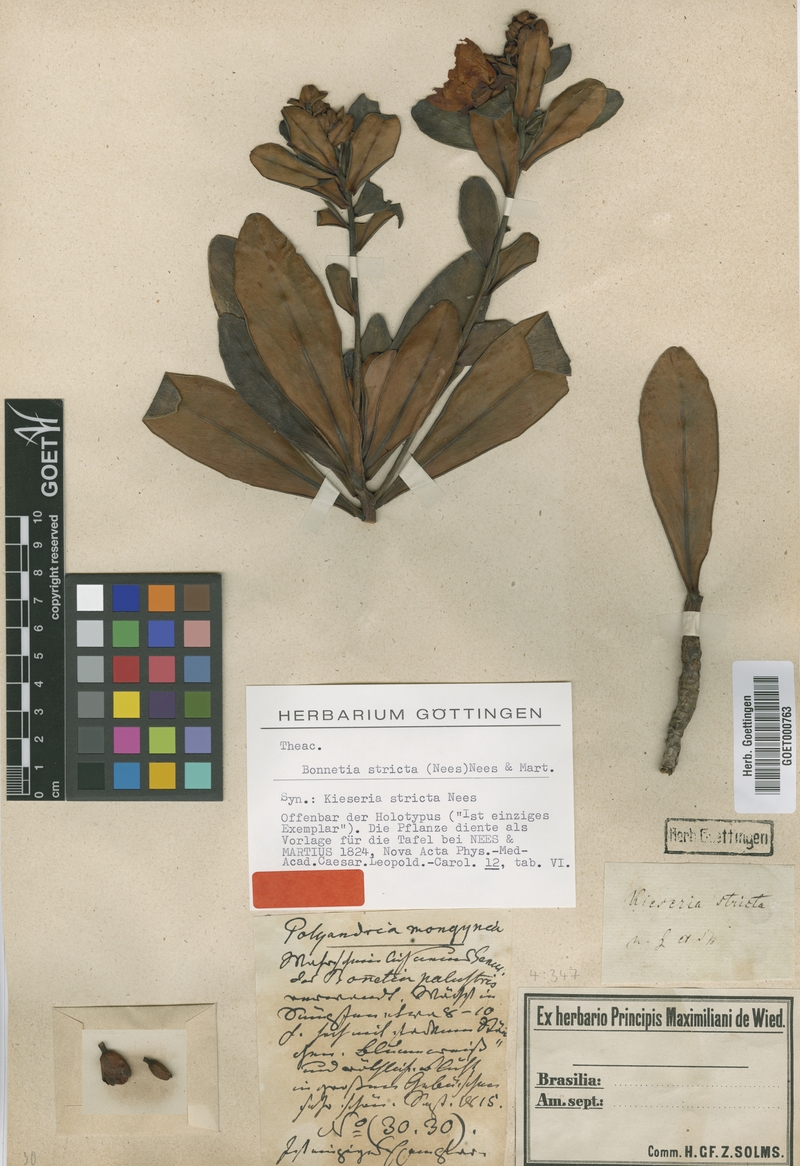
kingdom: Plantae
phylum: Tracheophyta
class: Magnoliopsida
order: Malpighiales
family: Bonnetiaceae
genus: Bonnetia
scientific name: Bonnetia stricta
